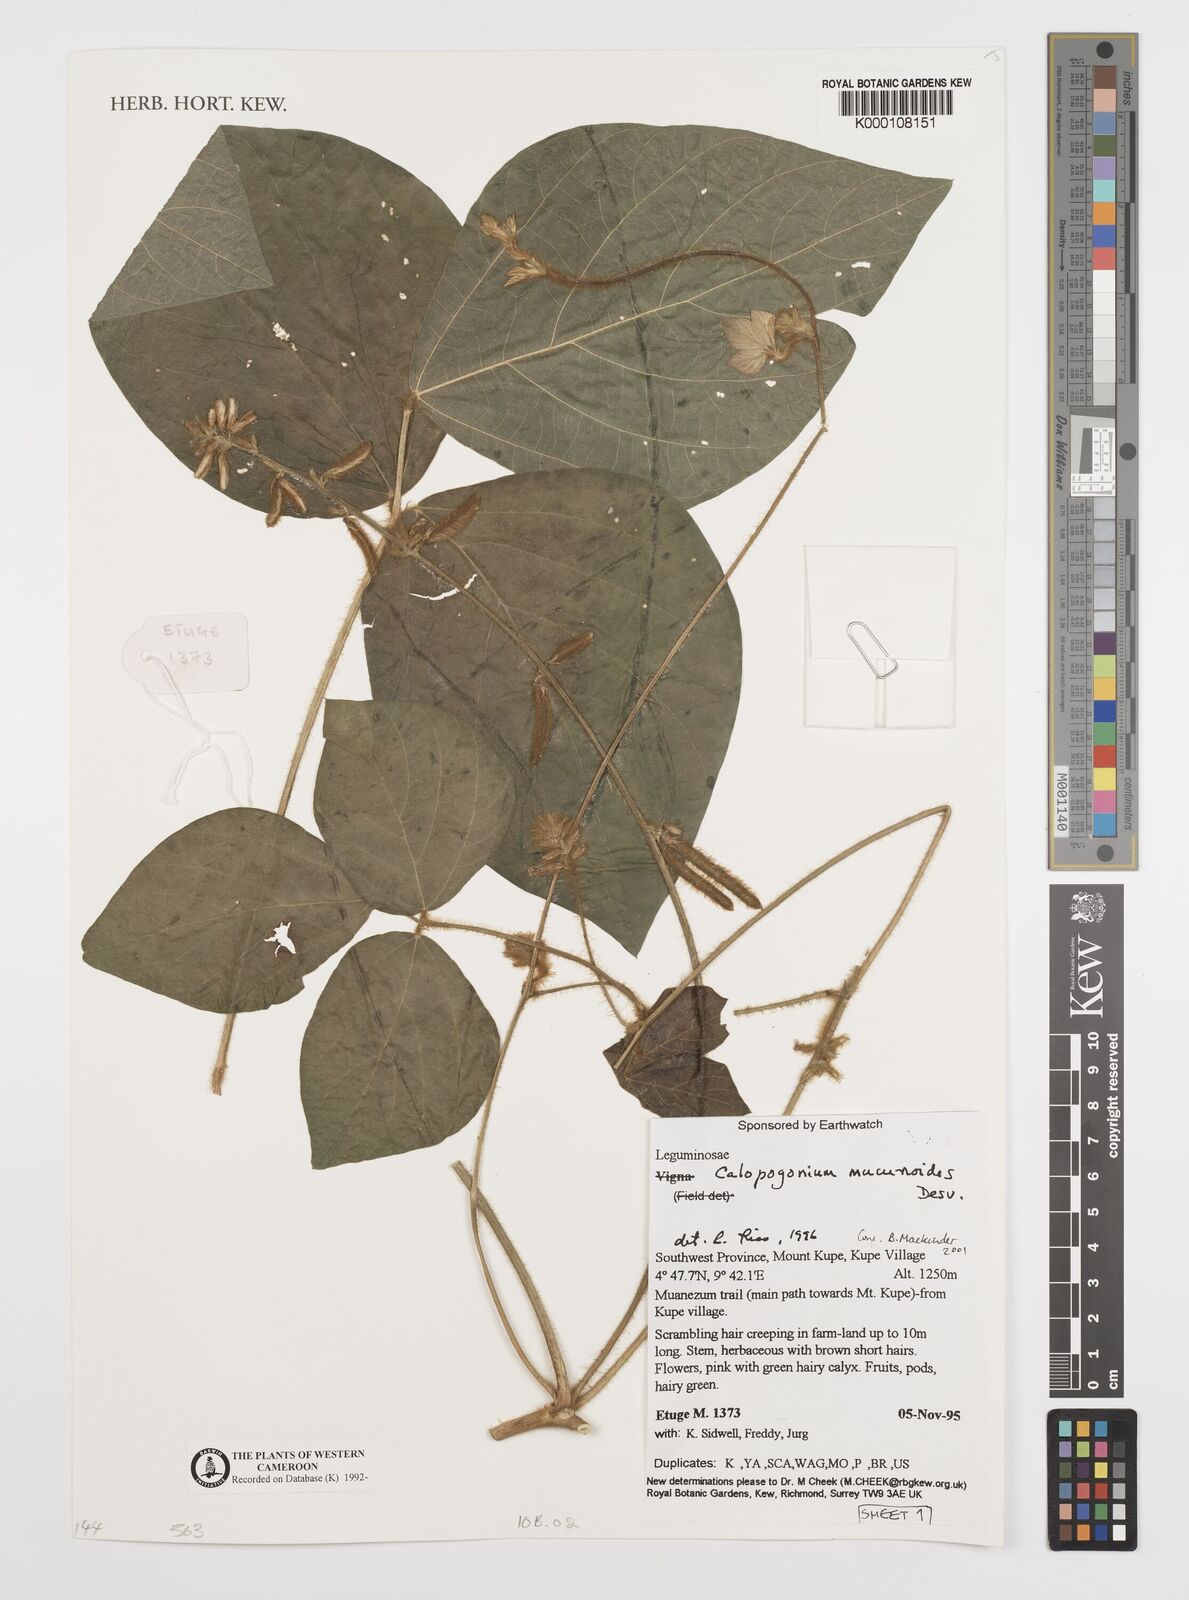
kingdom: Plantae
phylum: Tracheophyta
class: Magnoliopsida
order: Fabales
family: Fabaceae
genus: Calopogonium
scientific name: Calopogonium mucunoides
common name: Calopo
